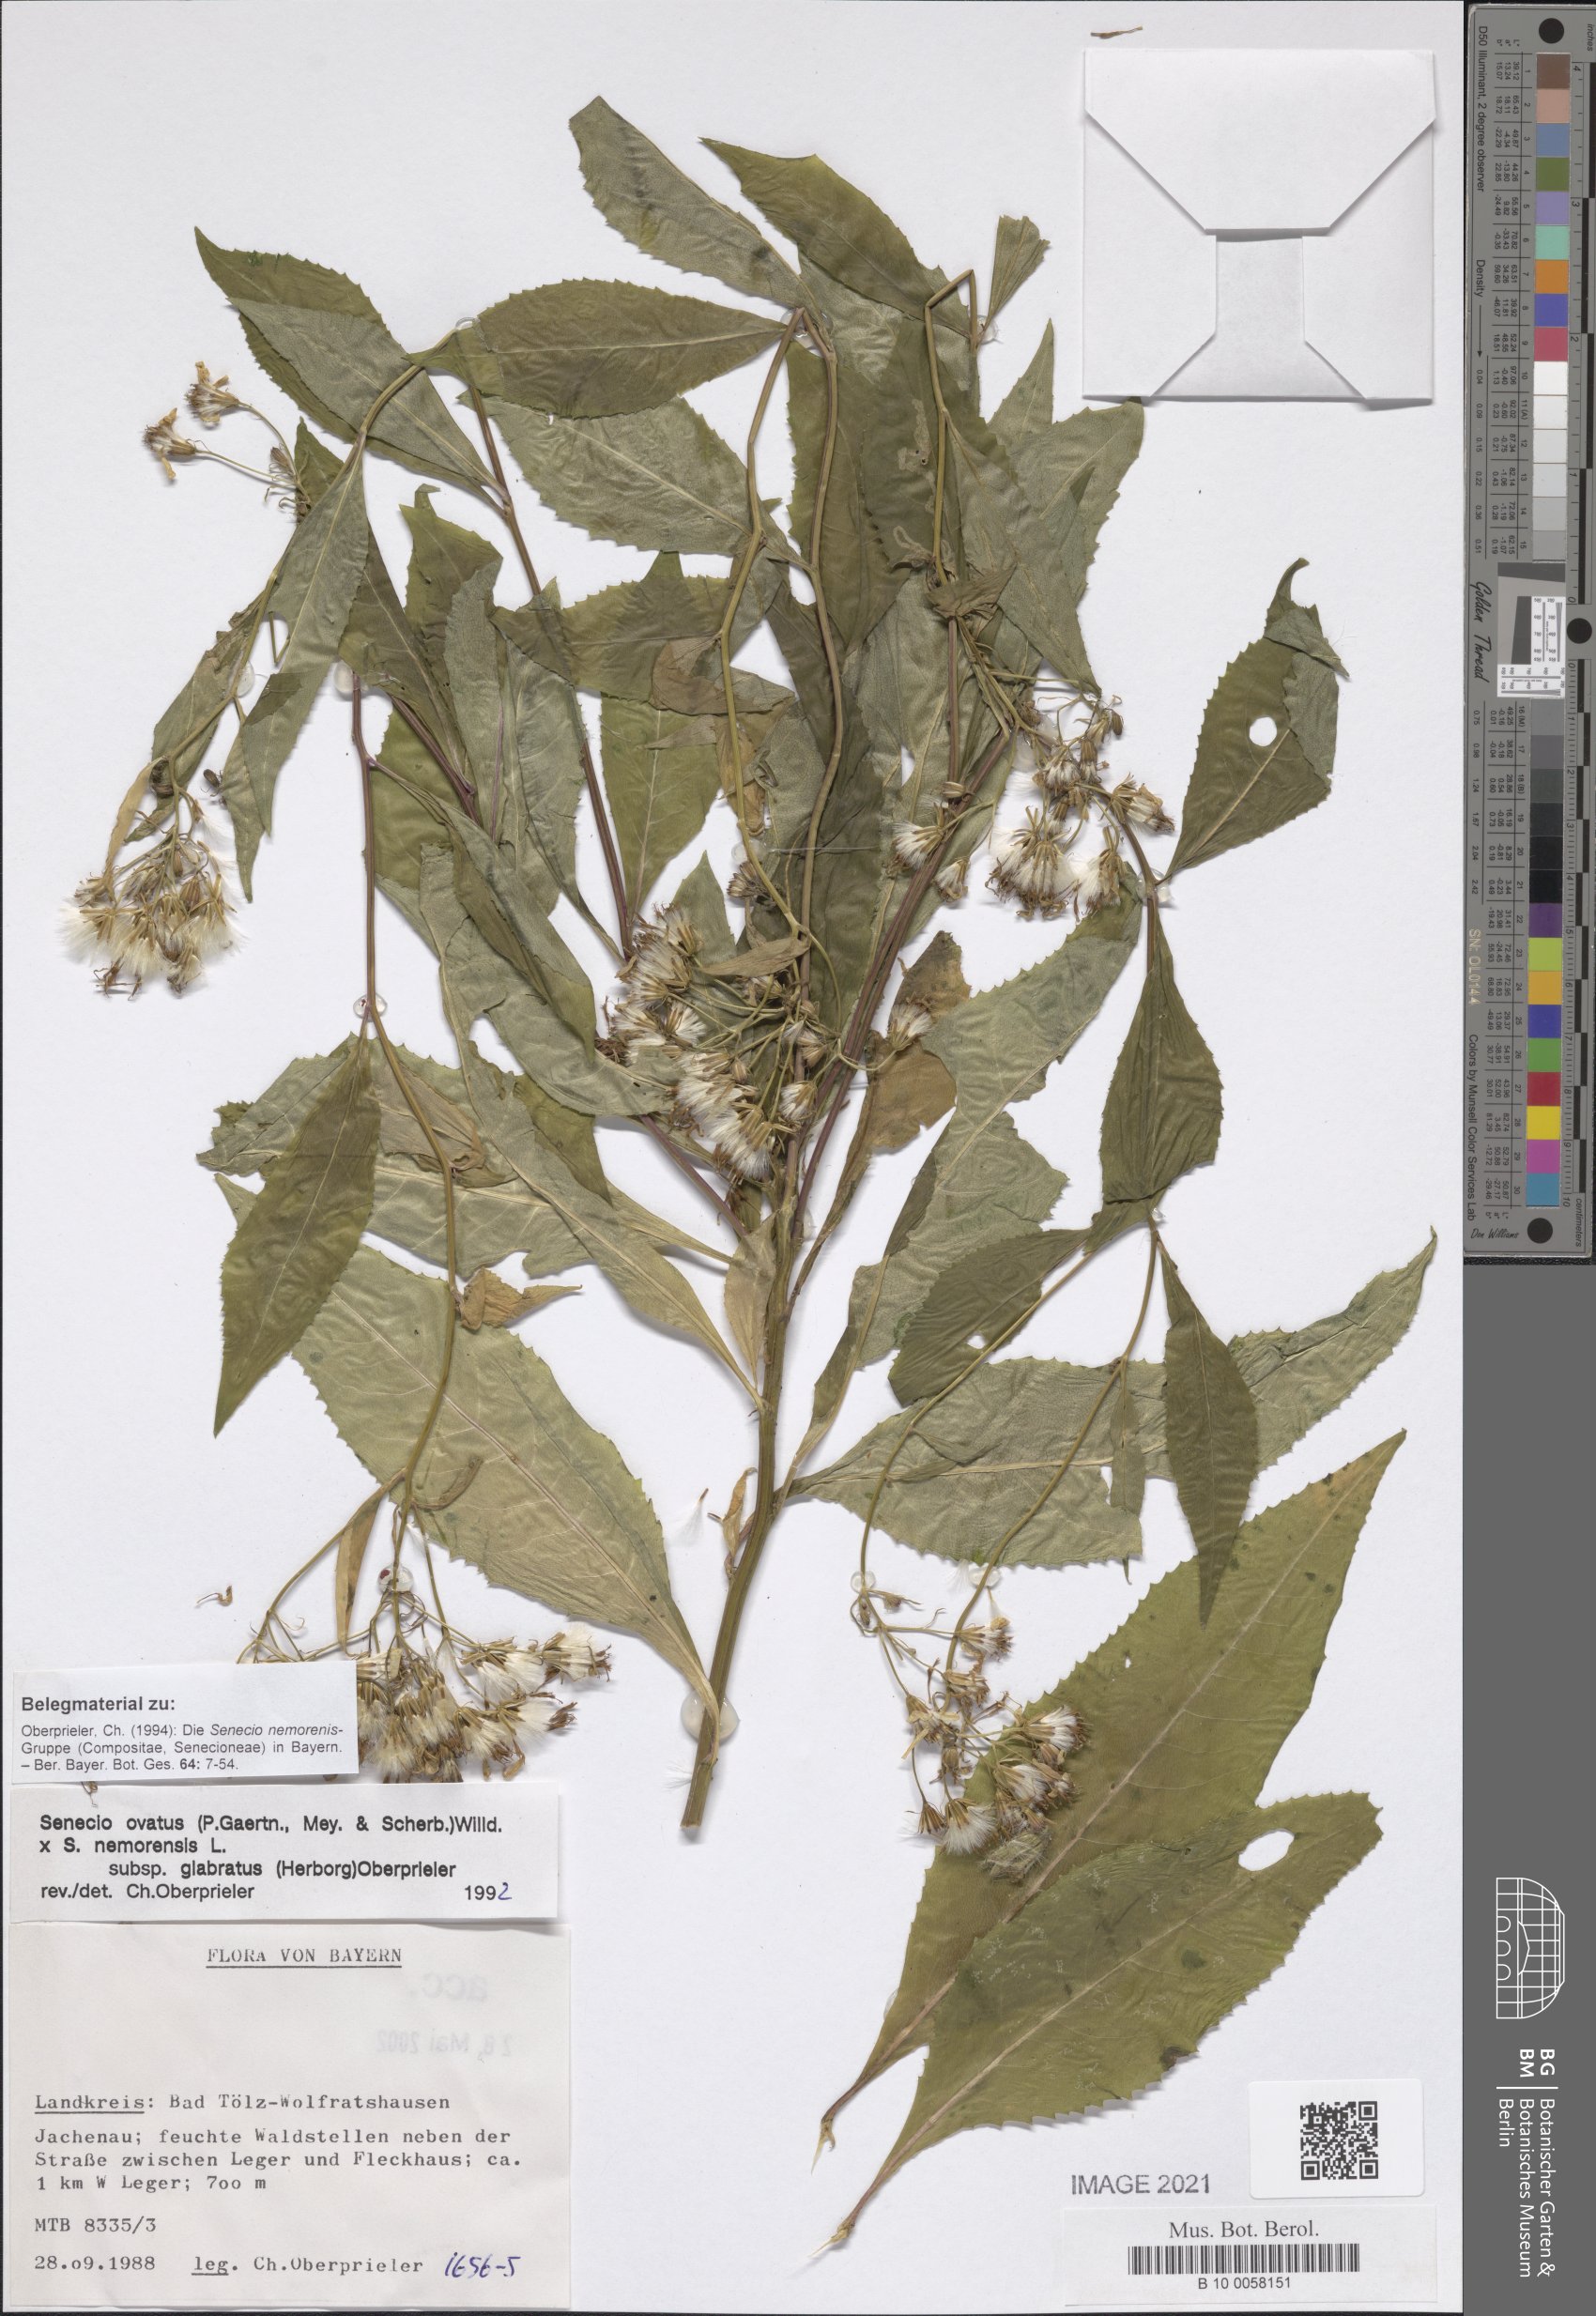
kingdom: Plantae
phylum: Tracheophyta
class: Magnoliopsida
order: Asterales
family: Asteraceae
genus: Senecio
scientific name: Senecio ovatus
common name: Wood ragwort
